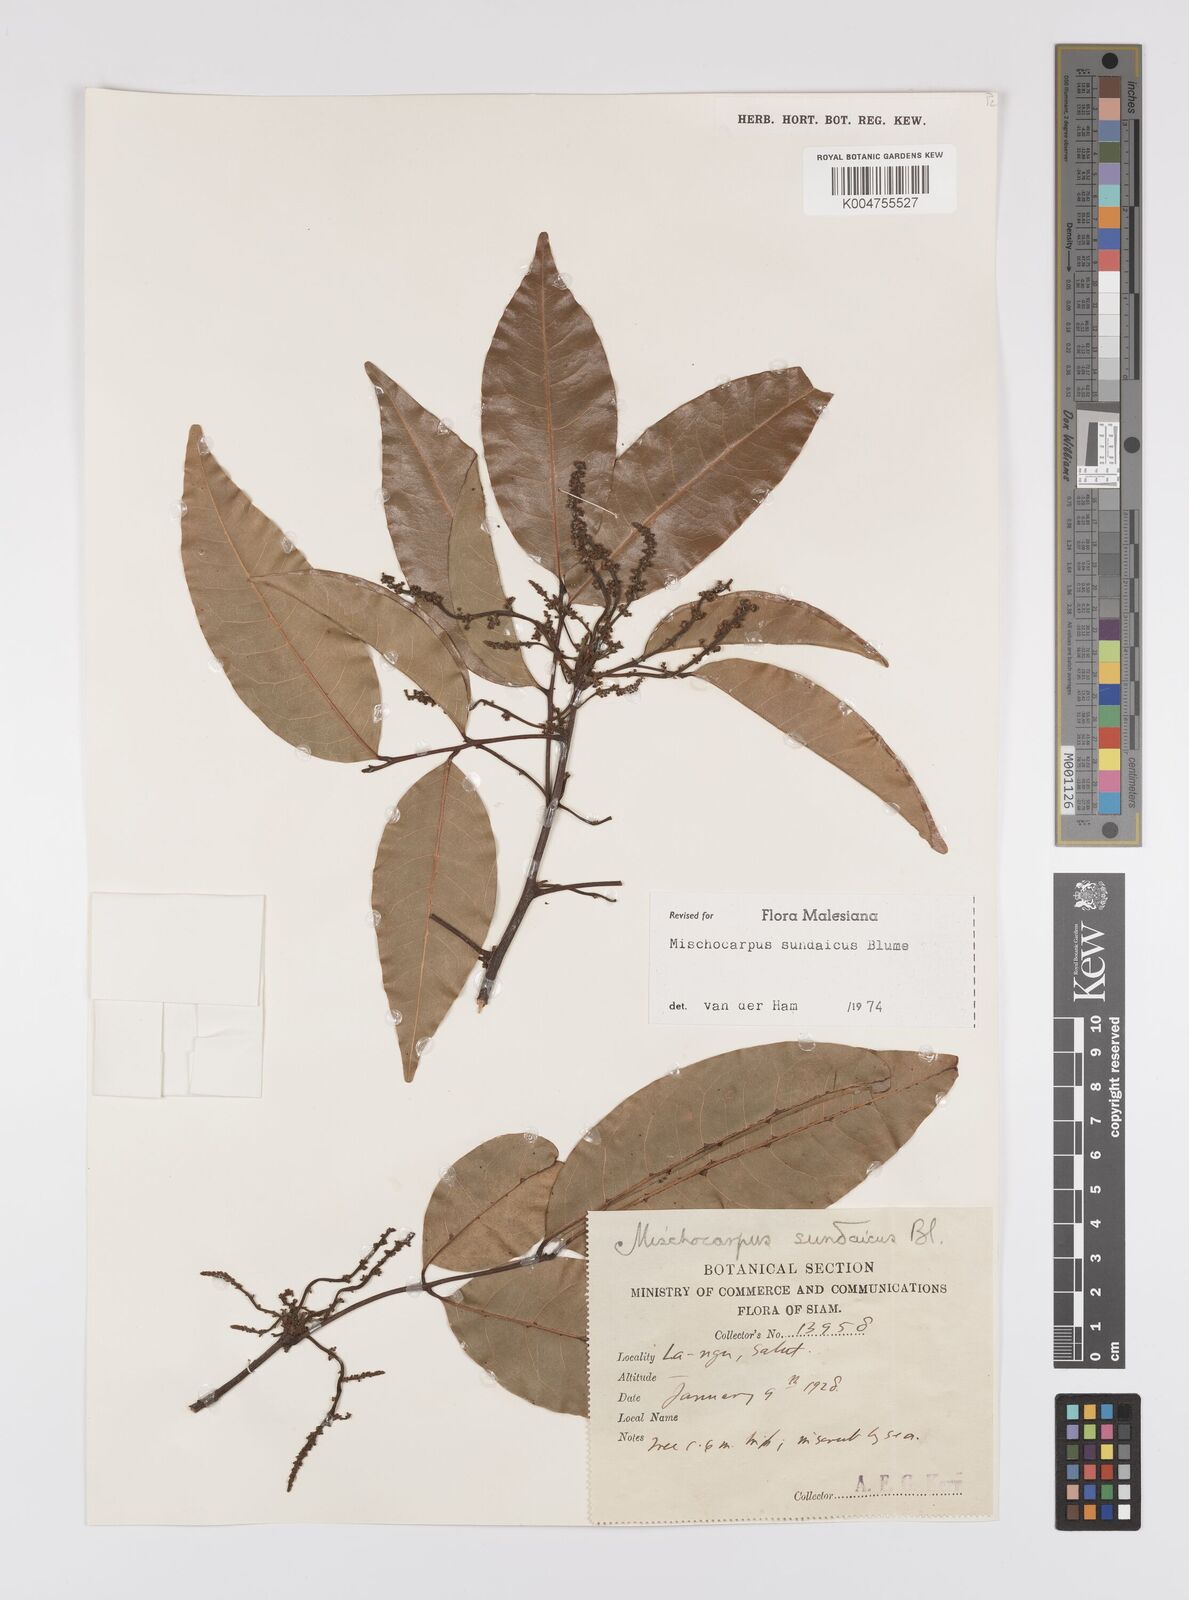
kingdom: Plantae
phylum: Tracheophyta
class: Magnoliopsida
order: Sapindales
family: Sapindaceae
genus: Mischocarpus
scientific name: Mischocarpus sundaicus
